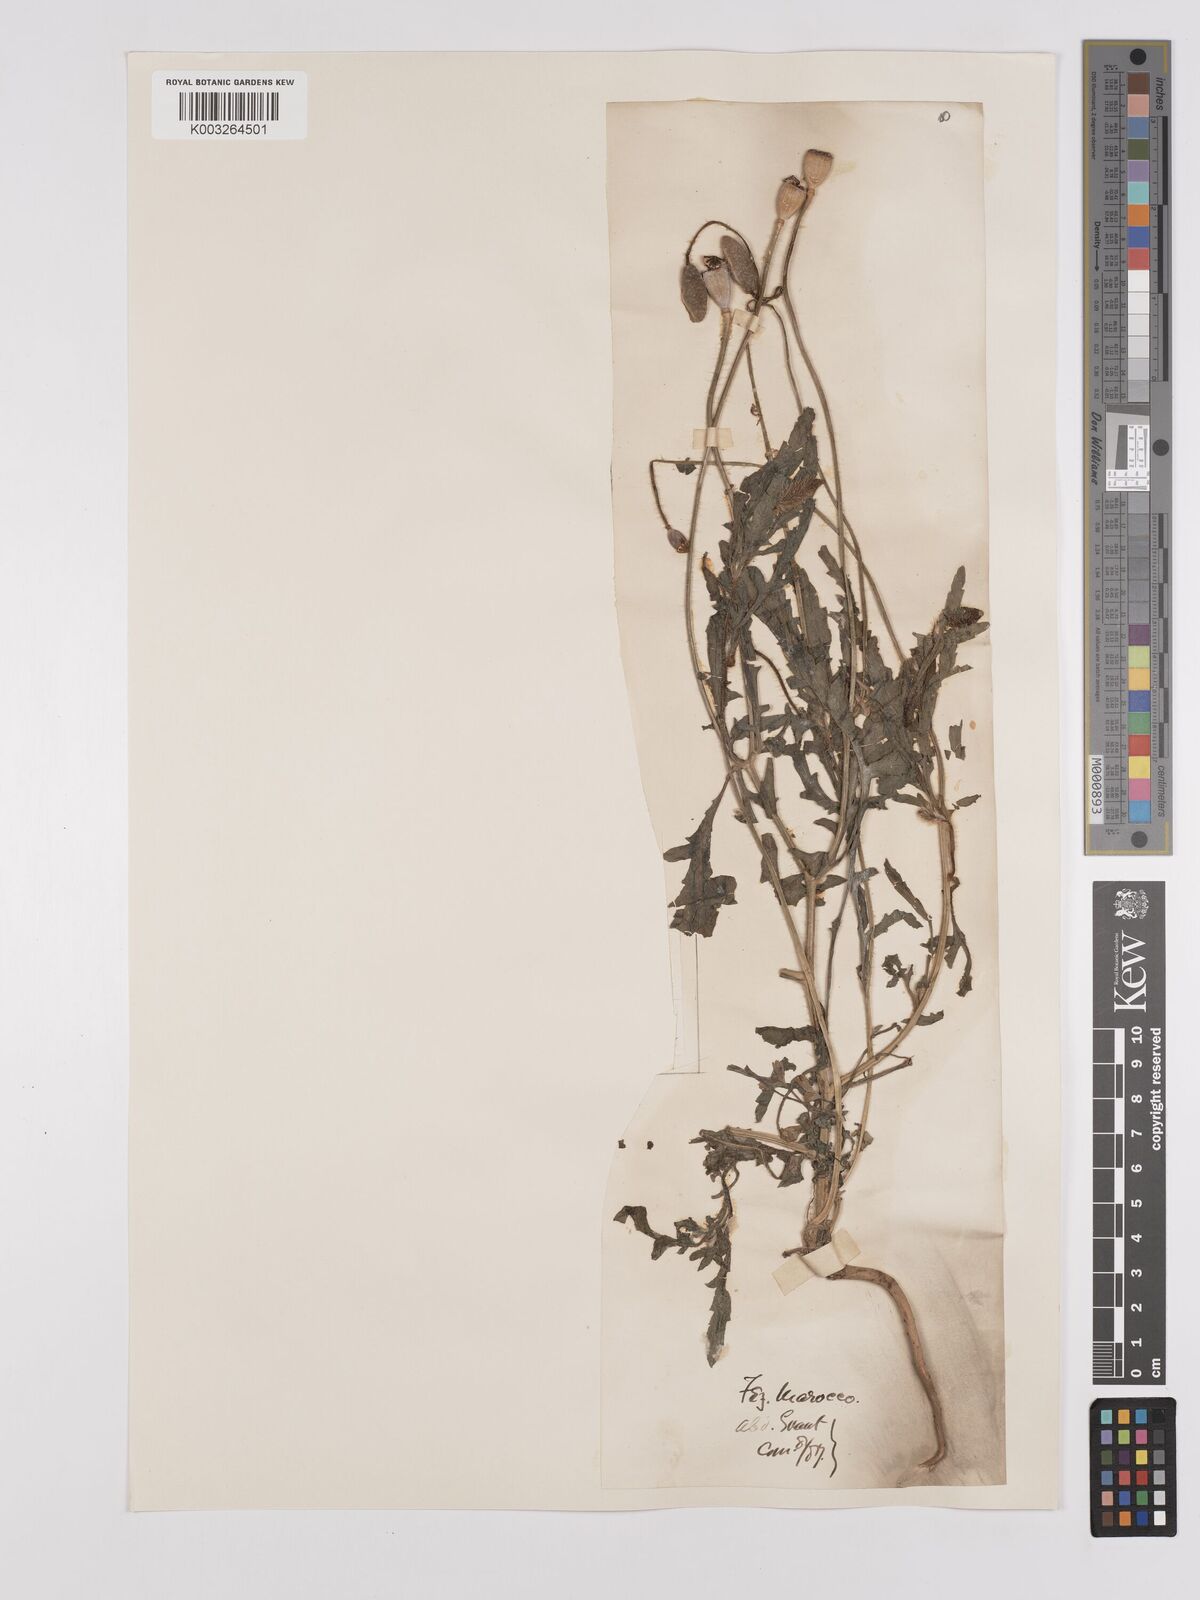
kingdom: Plantae
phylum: Tracheophyta
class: Magnoliopsida
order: Ranunculales
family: Papaveraceae
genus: Papaver
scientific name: Papaver rhoeas
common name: Corn poppy
